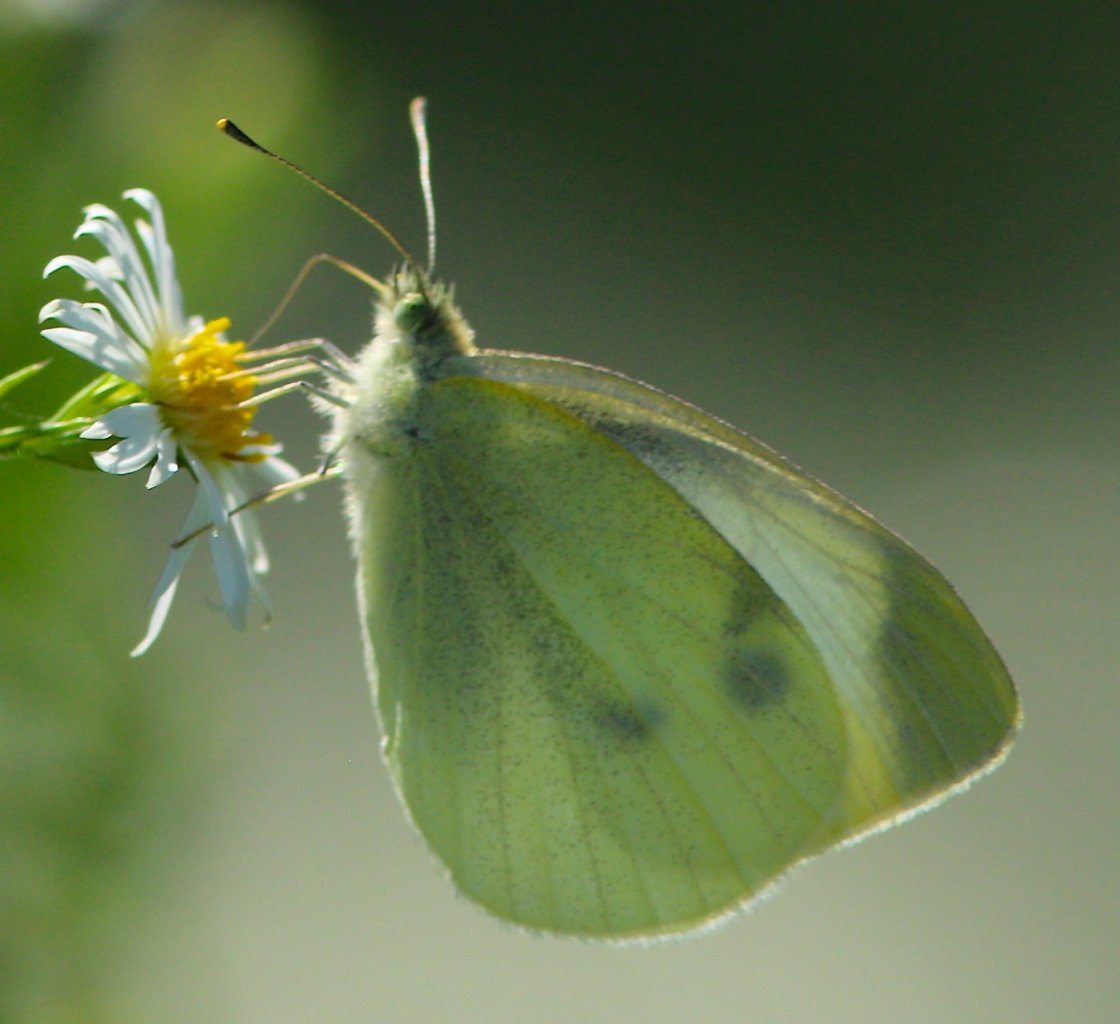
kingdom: Animalia
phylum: Arthropoda
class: Insecta
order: Lepidoptera
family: Pieridae
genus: Pieris
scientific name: Pieris rapae
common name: Cabbage White
